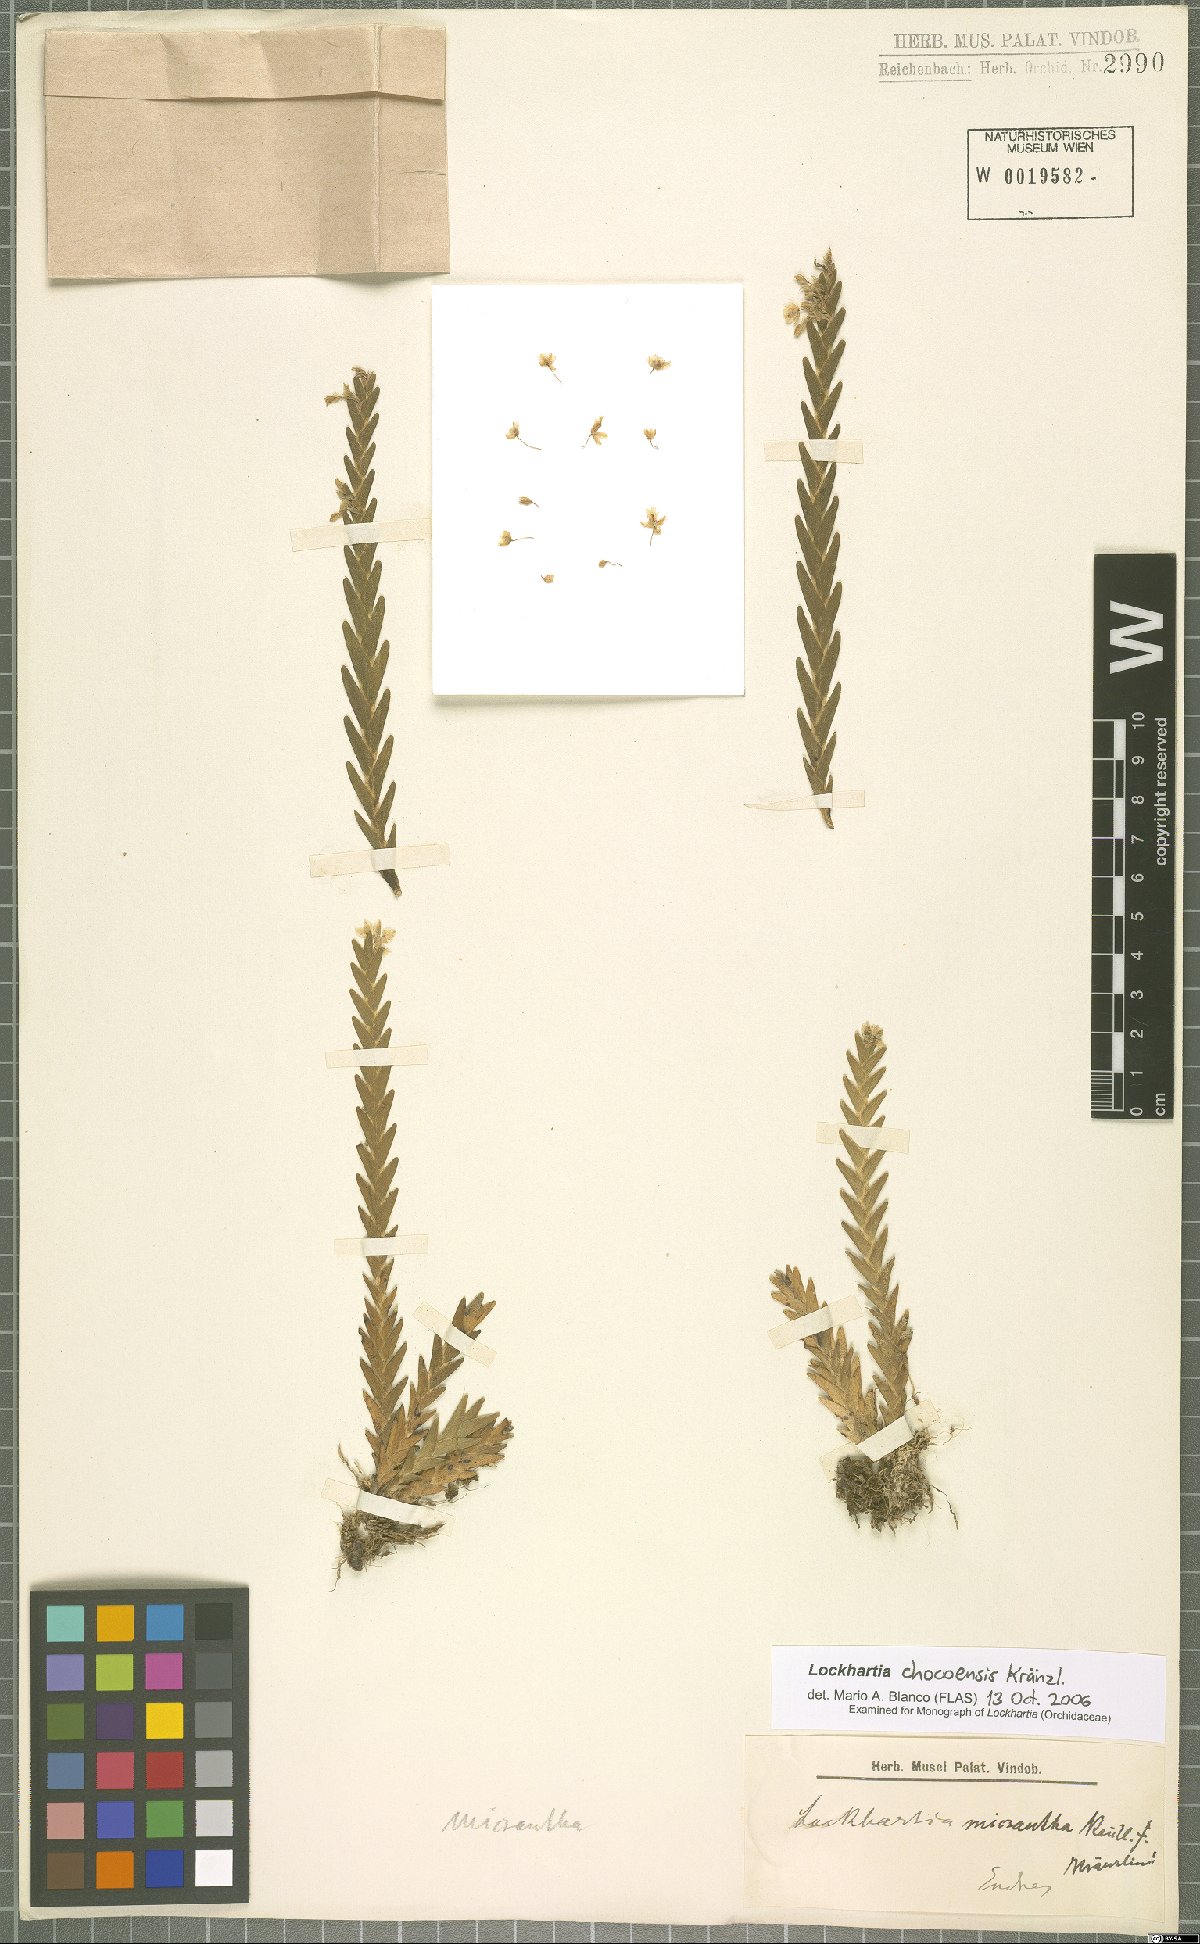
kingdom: Plantae
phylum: Tracheophyta
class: Liliopsida
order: Asparagales
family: Orchidaceae
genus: Lockhartia
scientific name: Lockhartia chocoensis
